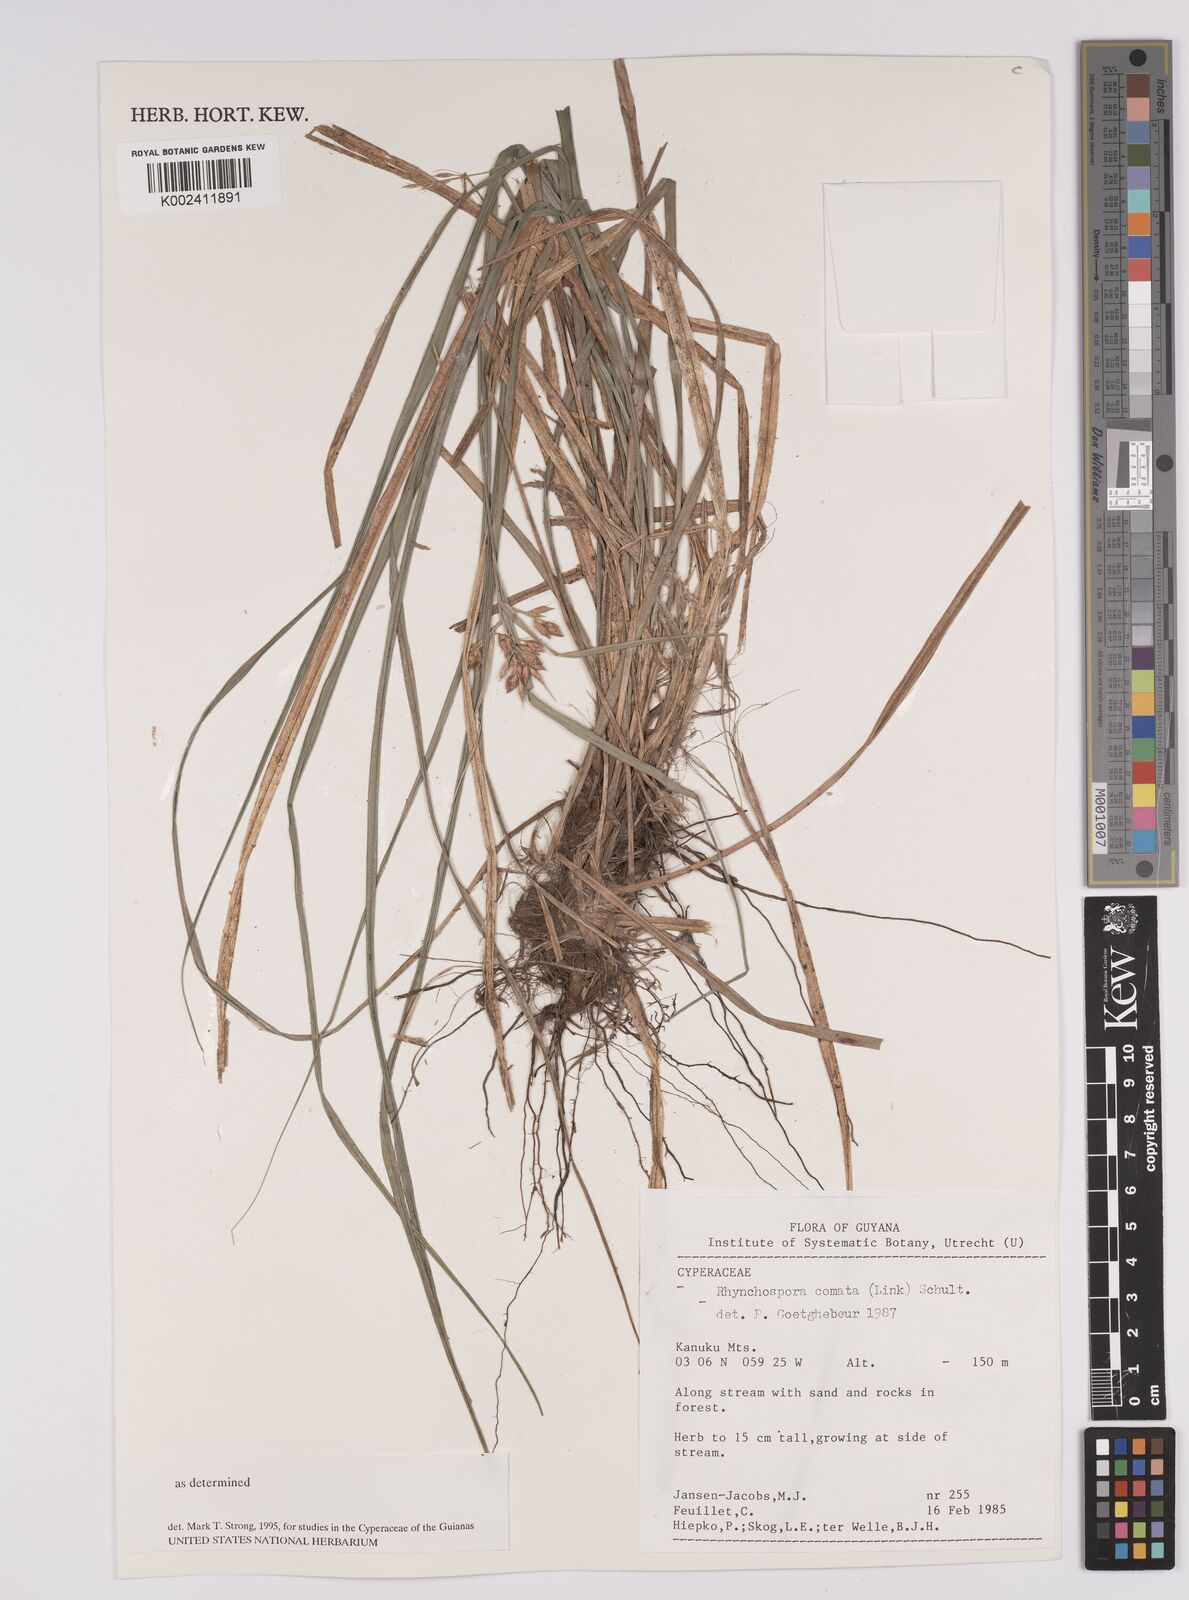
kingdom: Plantae
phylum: Tracheophyta
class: Liliopsida
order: Poales
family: Cyperaceae
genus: Rhynchospora
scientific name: Rhynchospora comata
